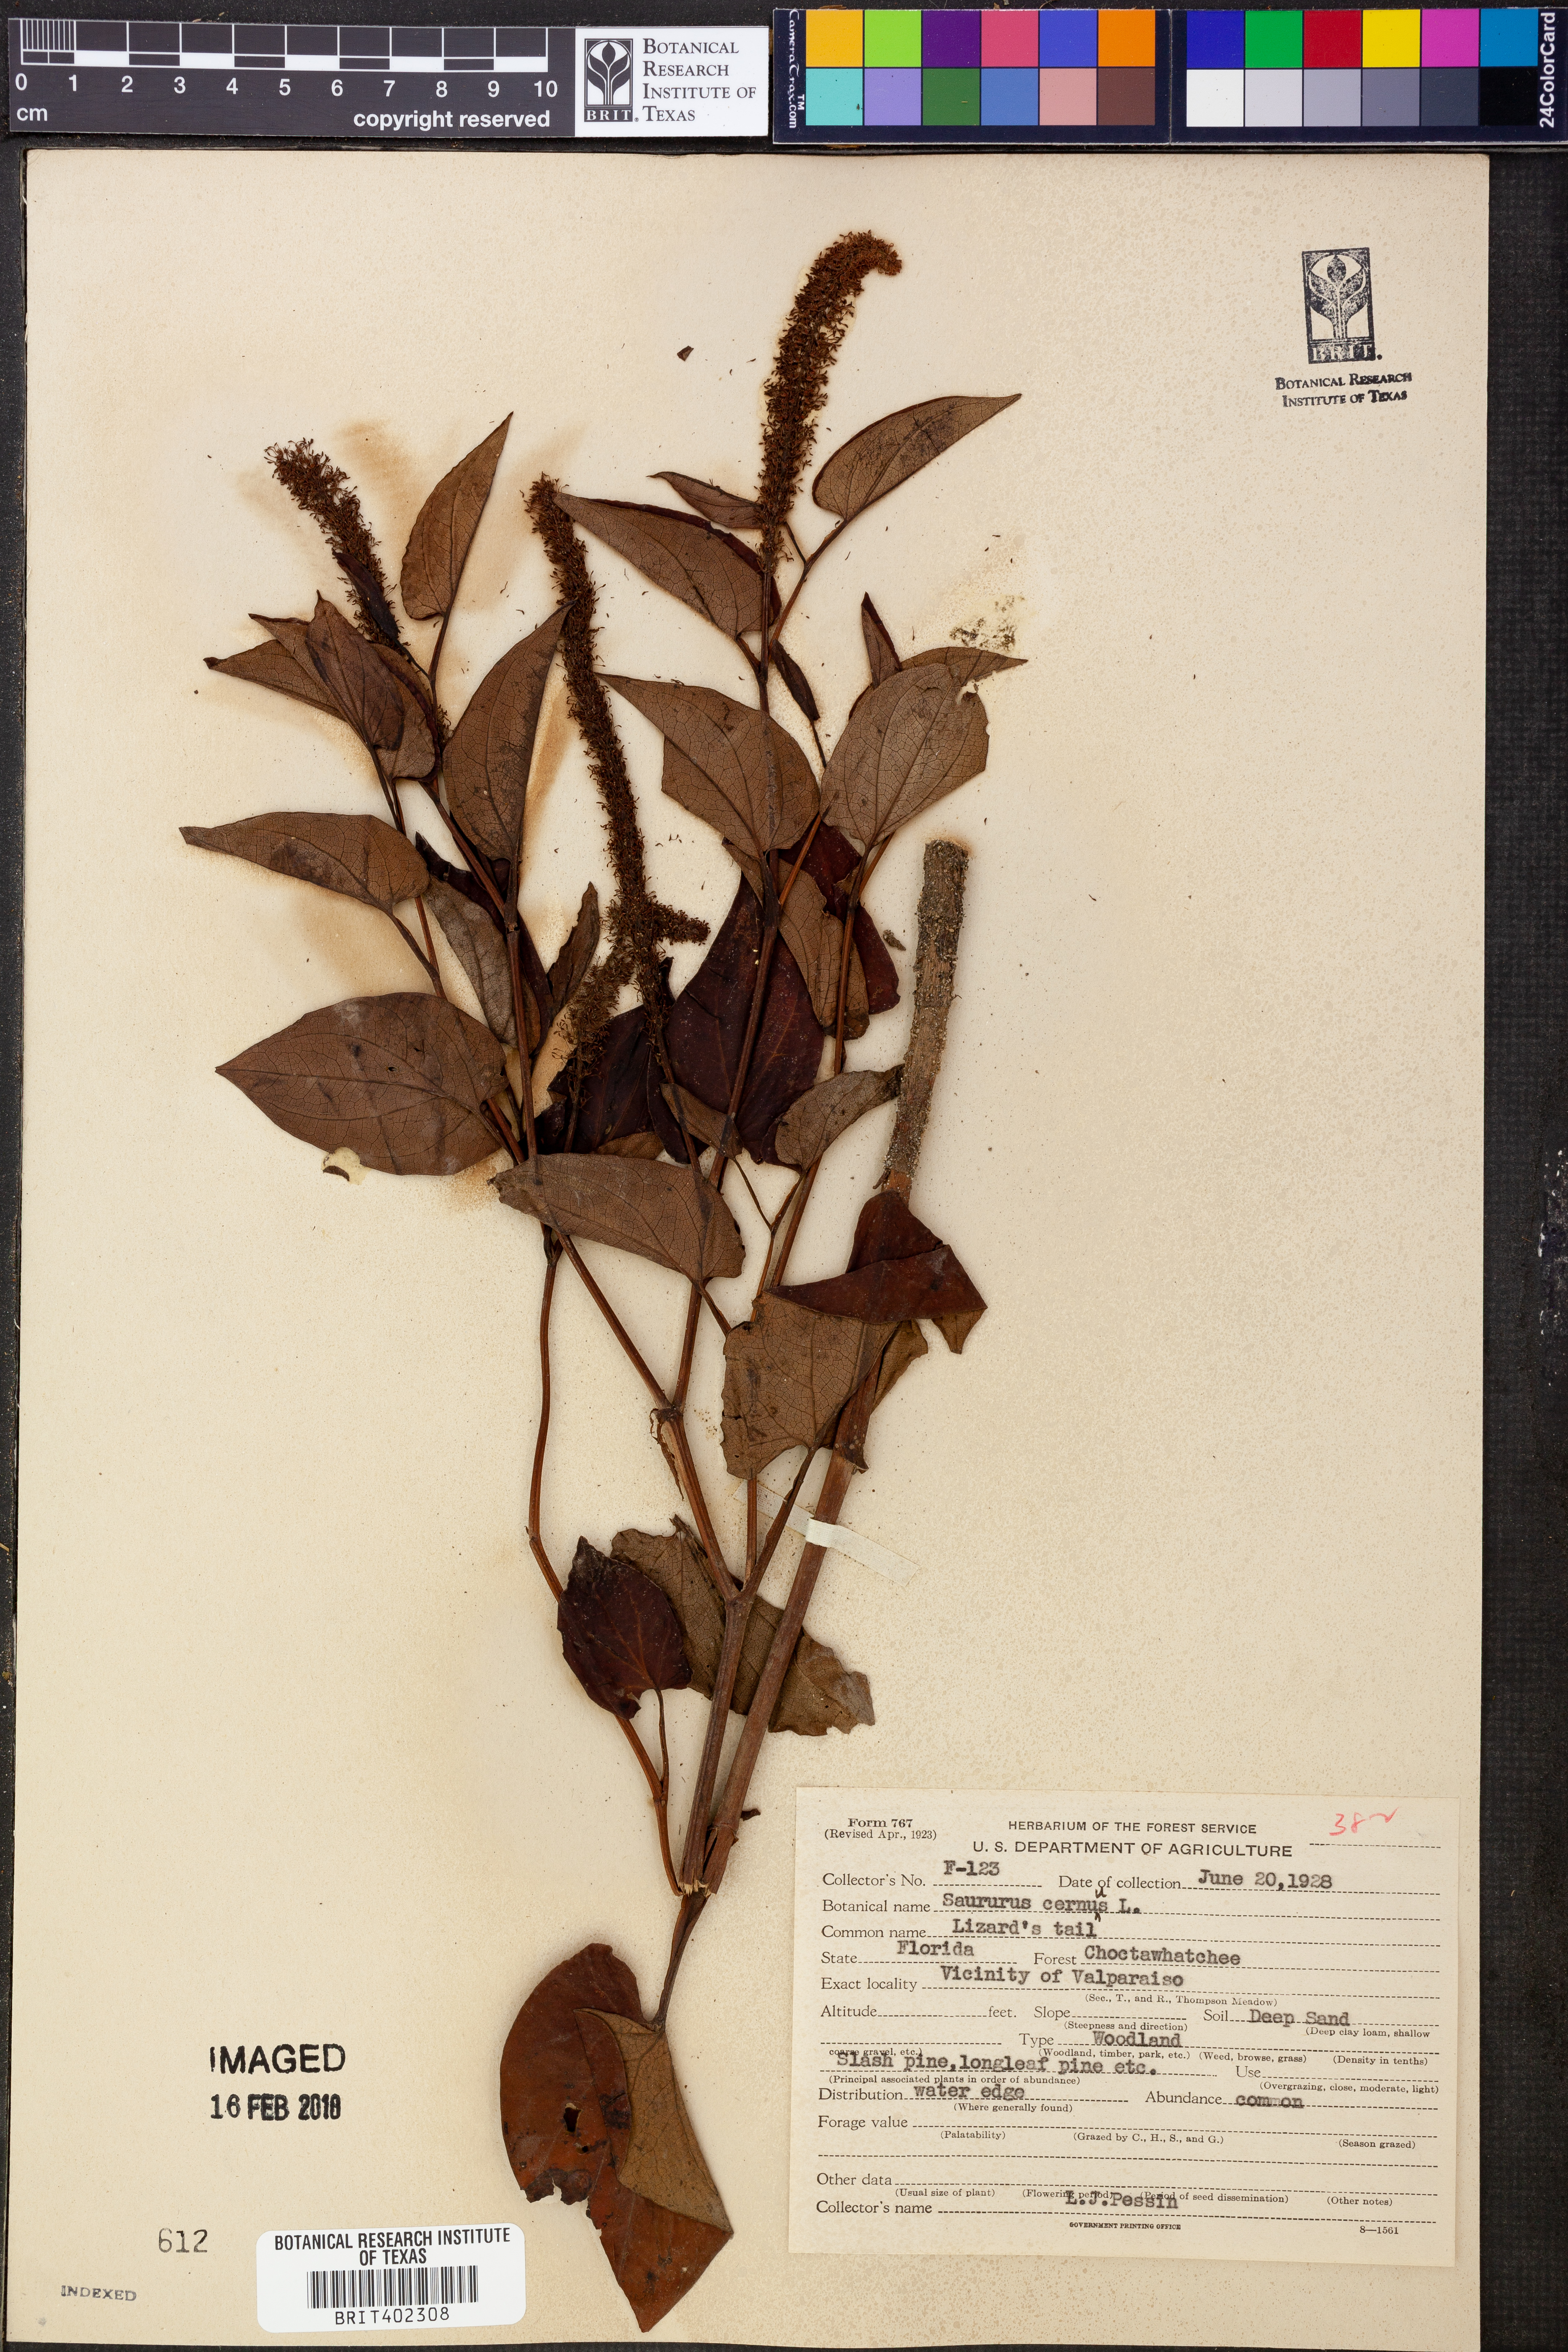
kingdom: Plantae
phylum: Tracheophyta
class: Magnoliopsida
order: Piperales
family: Saururaceae
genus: Saururus
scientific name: Saururus cernuus
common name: Lizard's-tail
